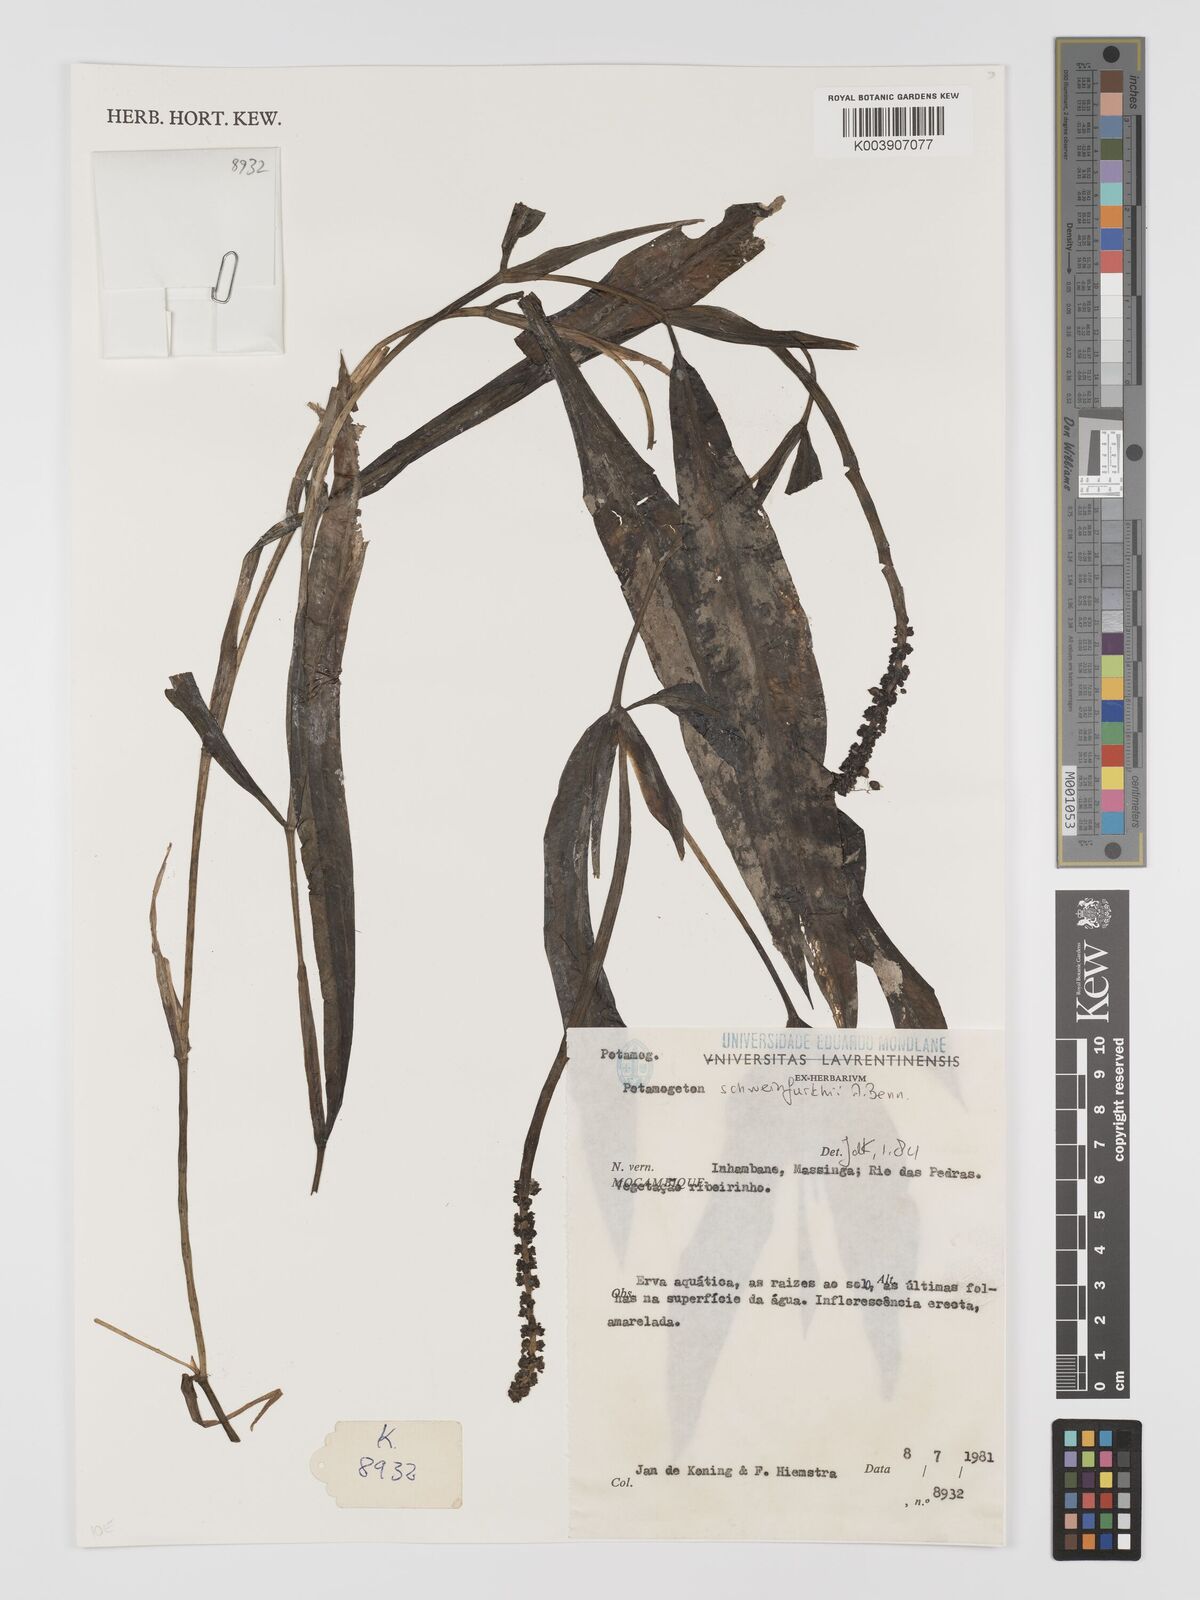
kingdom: Plantae
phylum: Tracheophyta
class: Liliopsida
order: Alismatales
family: Potamogetonaceae
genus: Potamogeton
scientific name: Potamogeton schweinfurthii
